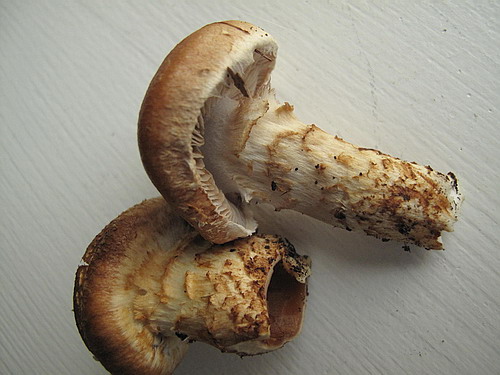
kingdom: Fungi
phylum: Basidiomycota
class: Agaricomycetes
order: Agaricales
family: Cortinariaceae
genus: Phlegmacium
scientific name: Phlegmacium vulpinum
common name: ringbæltet slørhat
